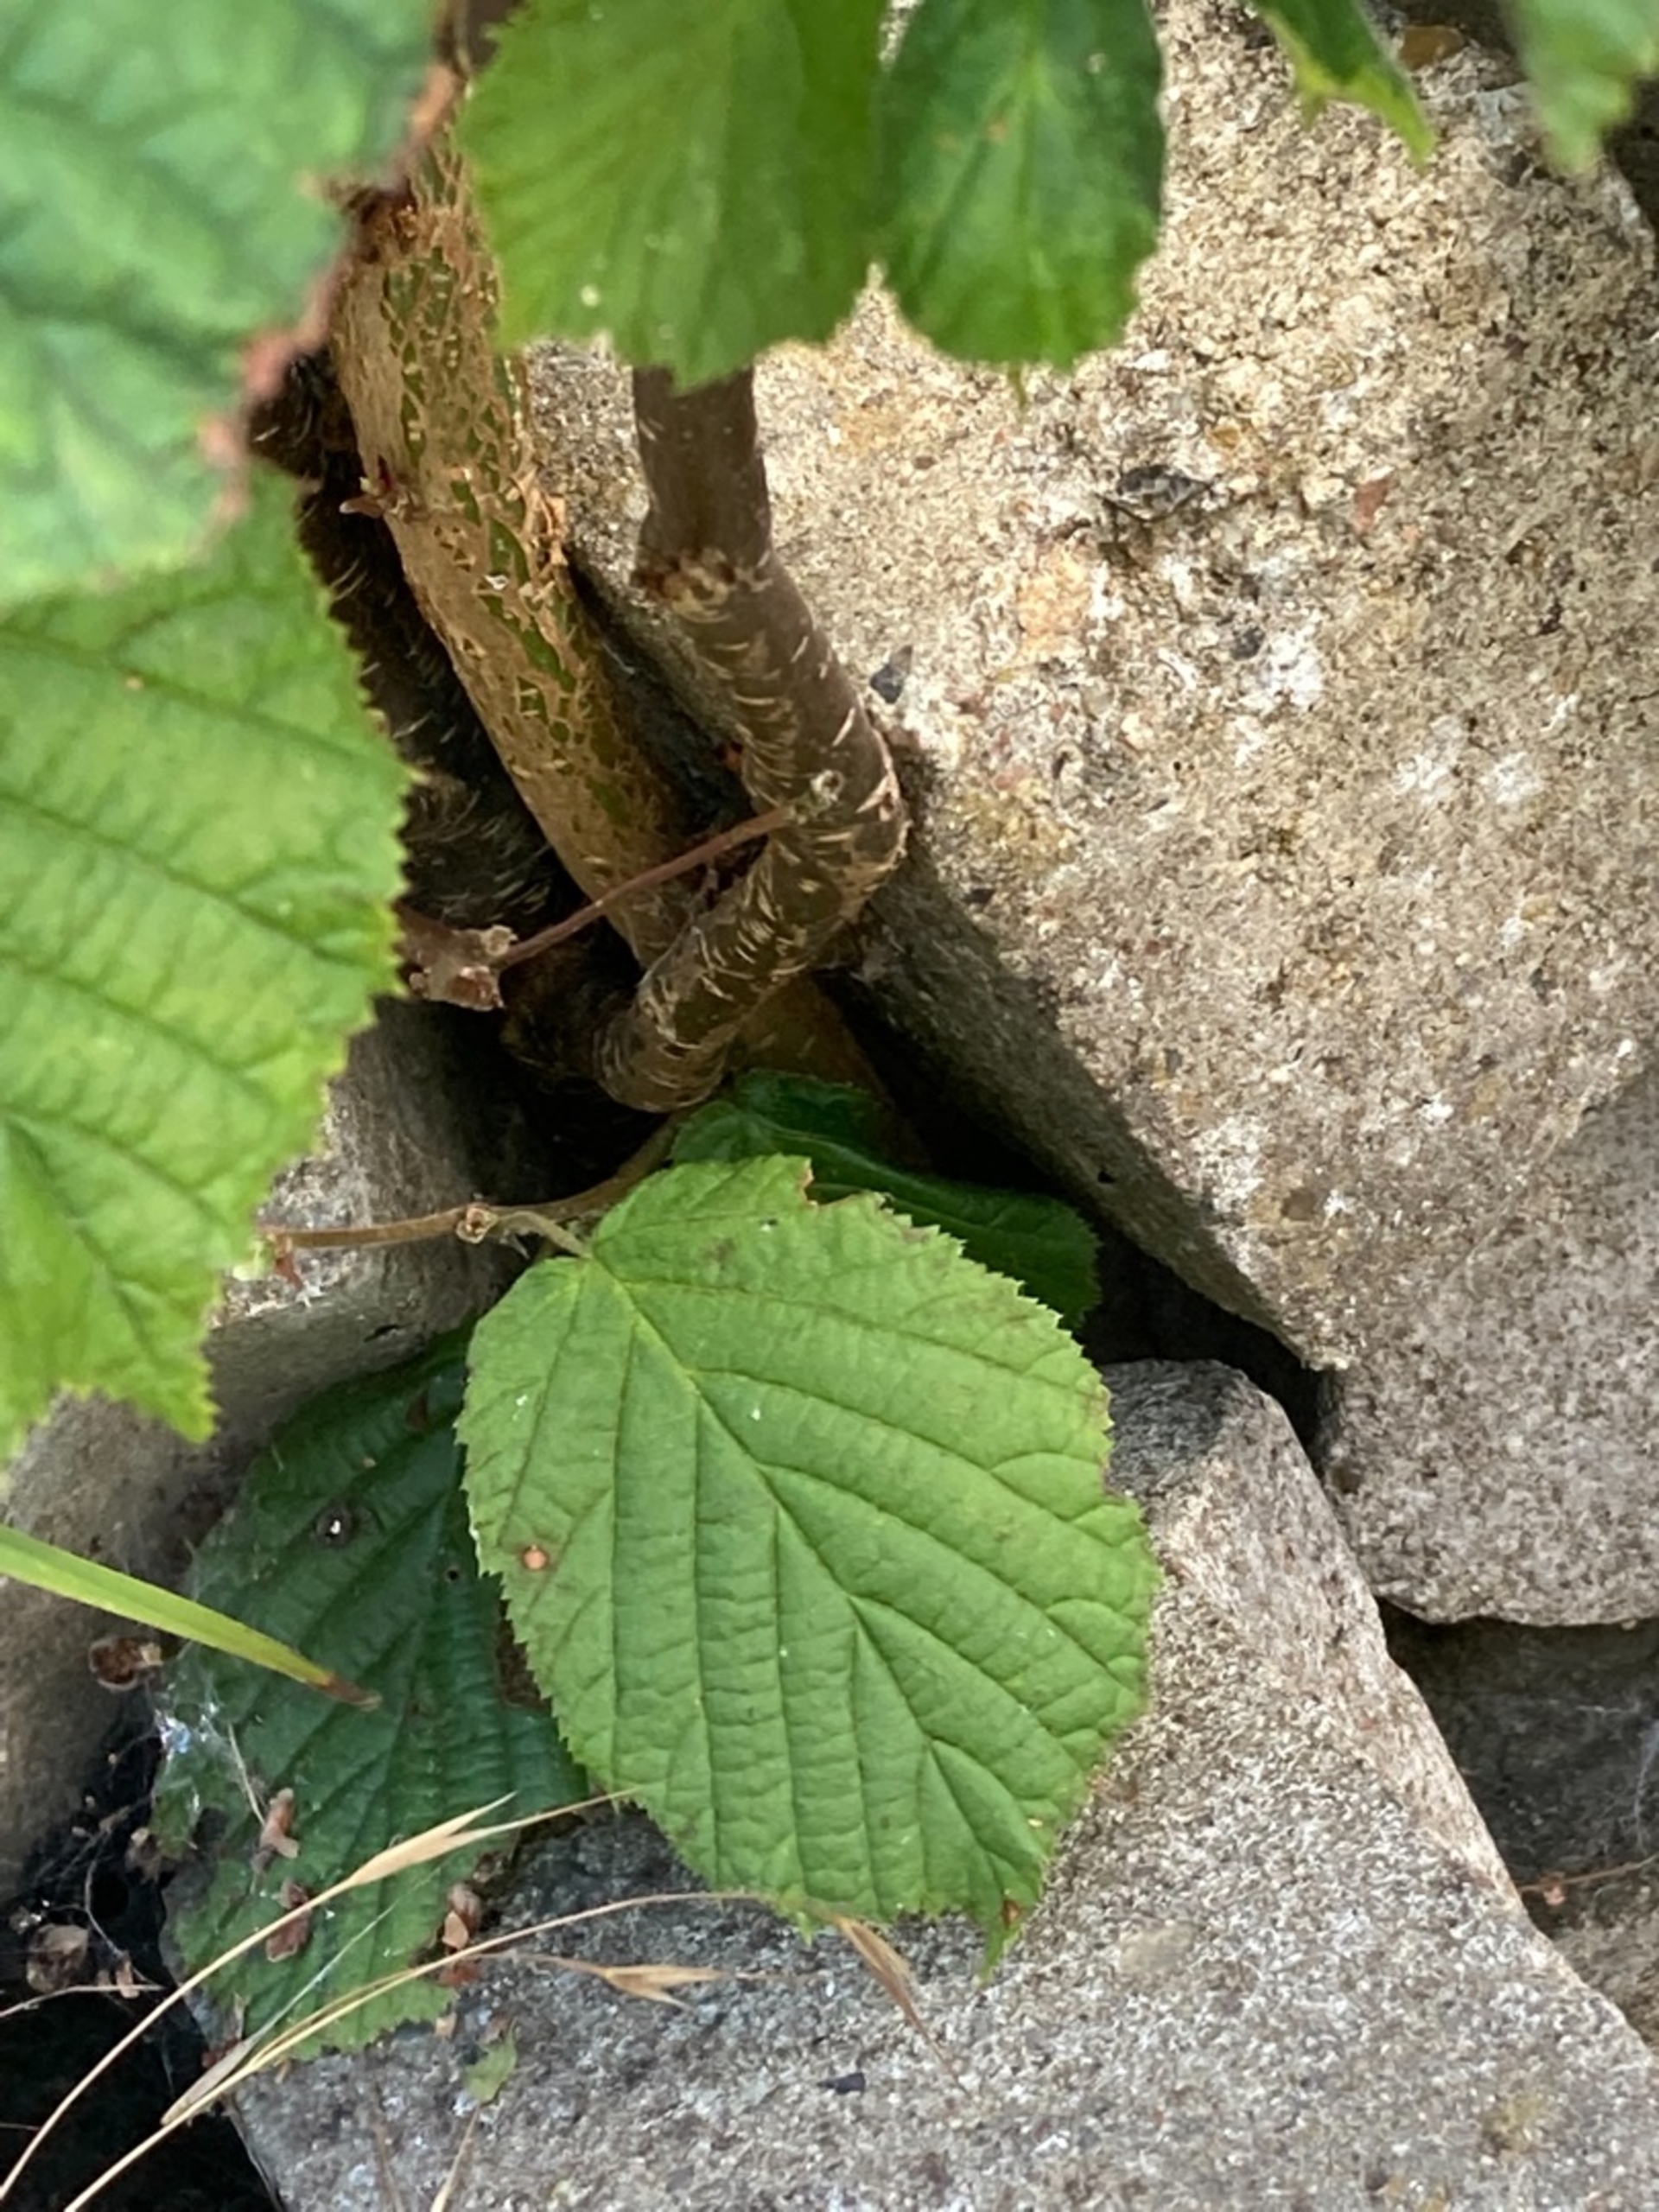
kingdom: Plantae
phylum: Tracheophyta
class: Magnoliopsida
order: Fagales
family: Betulaceae
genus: Corylus
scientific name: Corylus avellana
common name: Hassel
